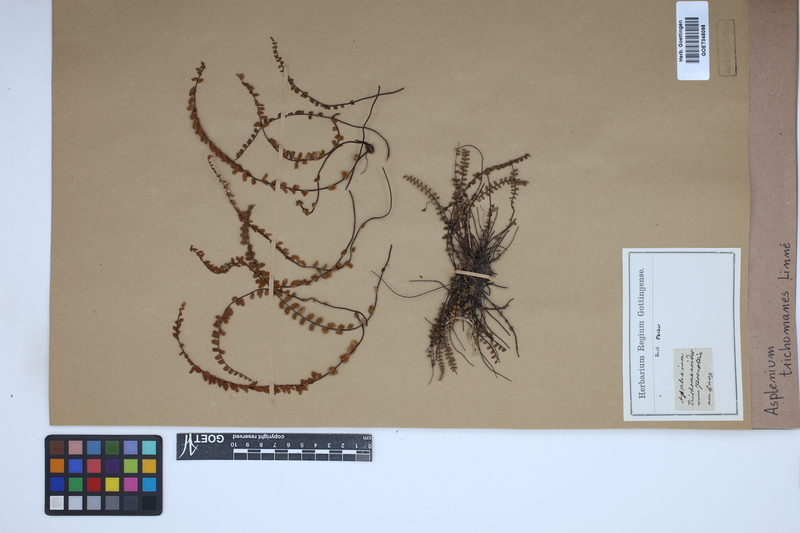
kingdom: Plantae
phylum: Tracheophyta
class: Polypodiopsida
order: Polypodiales
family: Aspleniaceae
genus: Asplenium
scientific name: Asplenium trichomanes
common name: Maidenhair spleenwort
